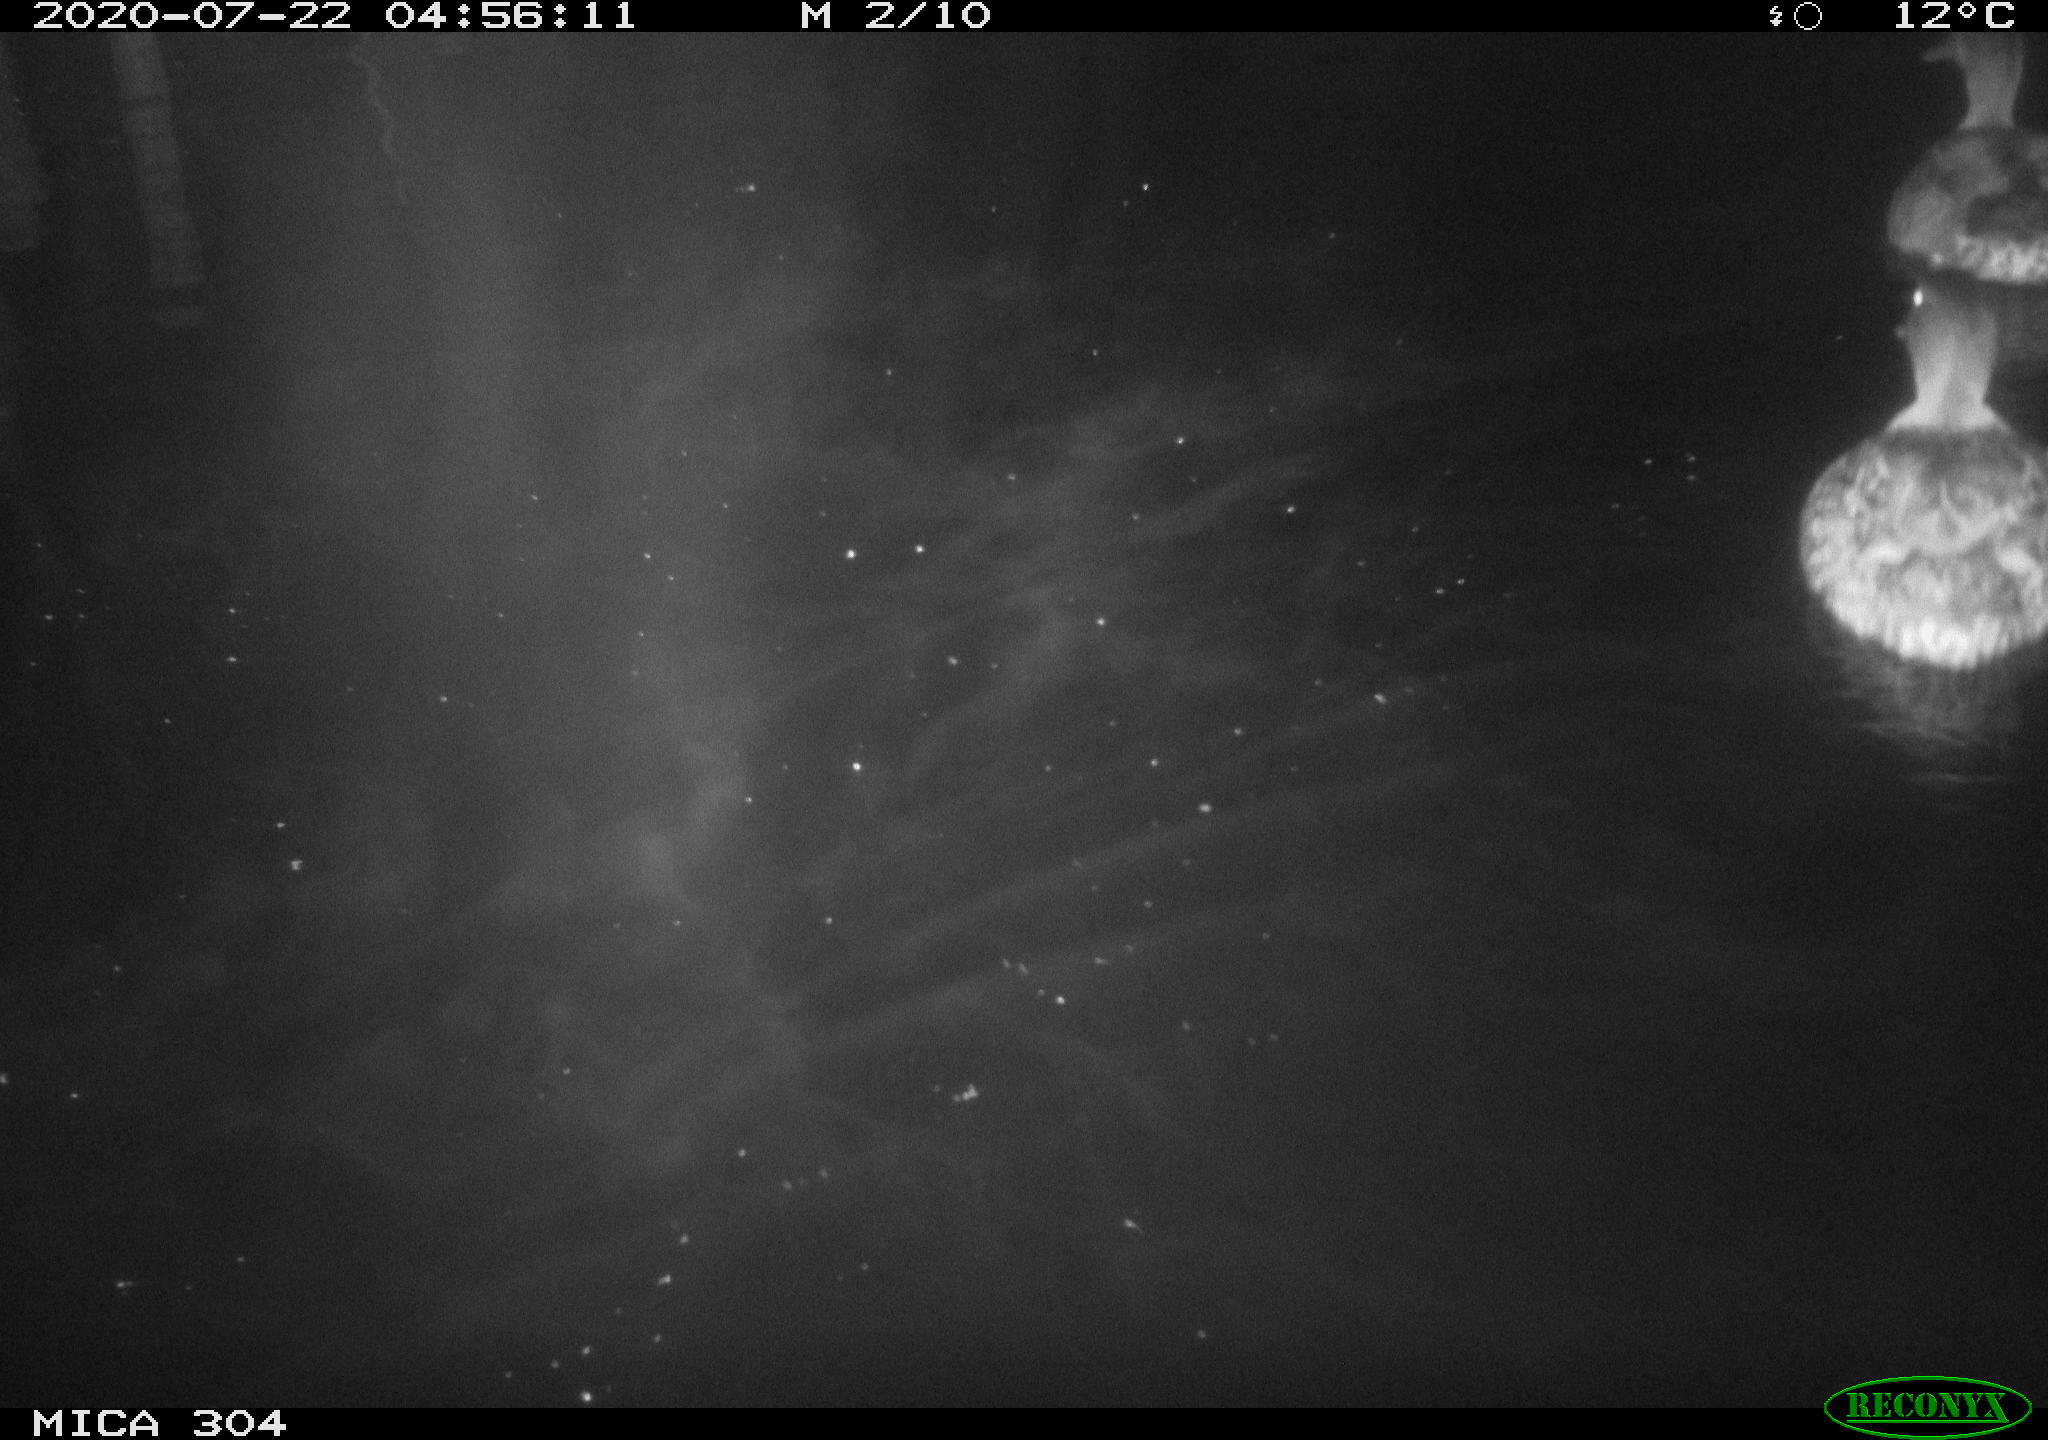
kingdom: Animalia
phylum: Chordata
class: Aves
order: Anseriformes
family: Anatidae
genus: Anas
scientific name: Anas platyrhynchos
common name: Mallard
